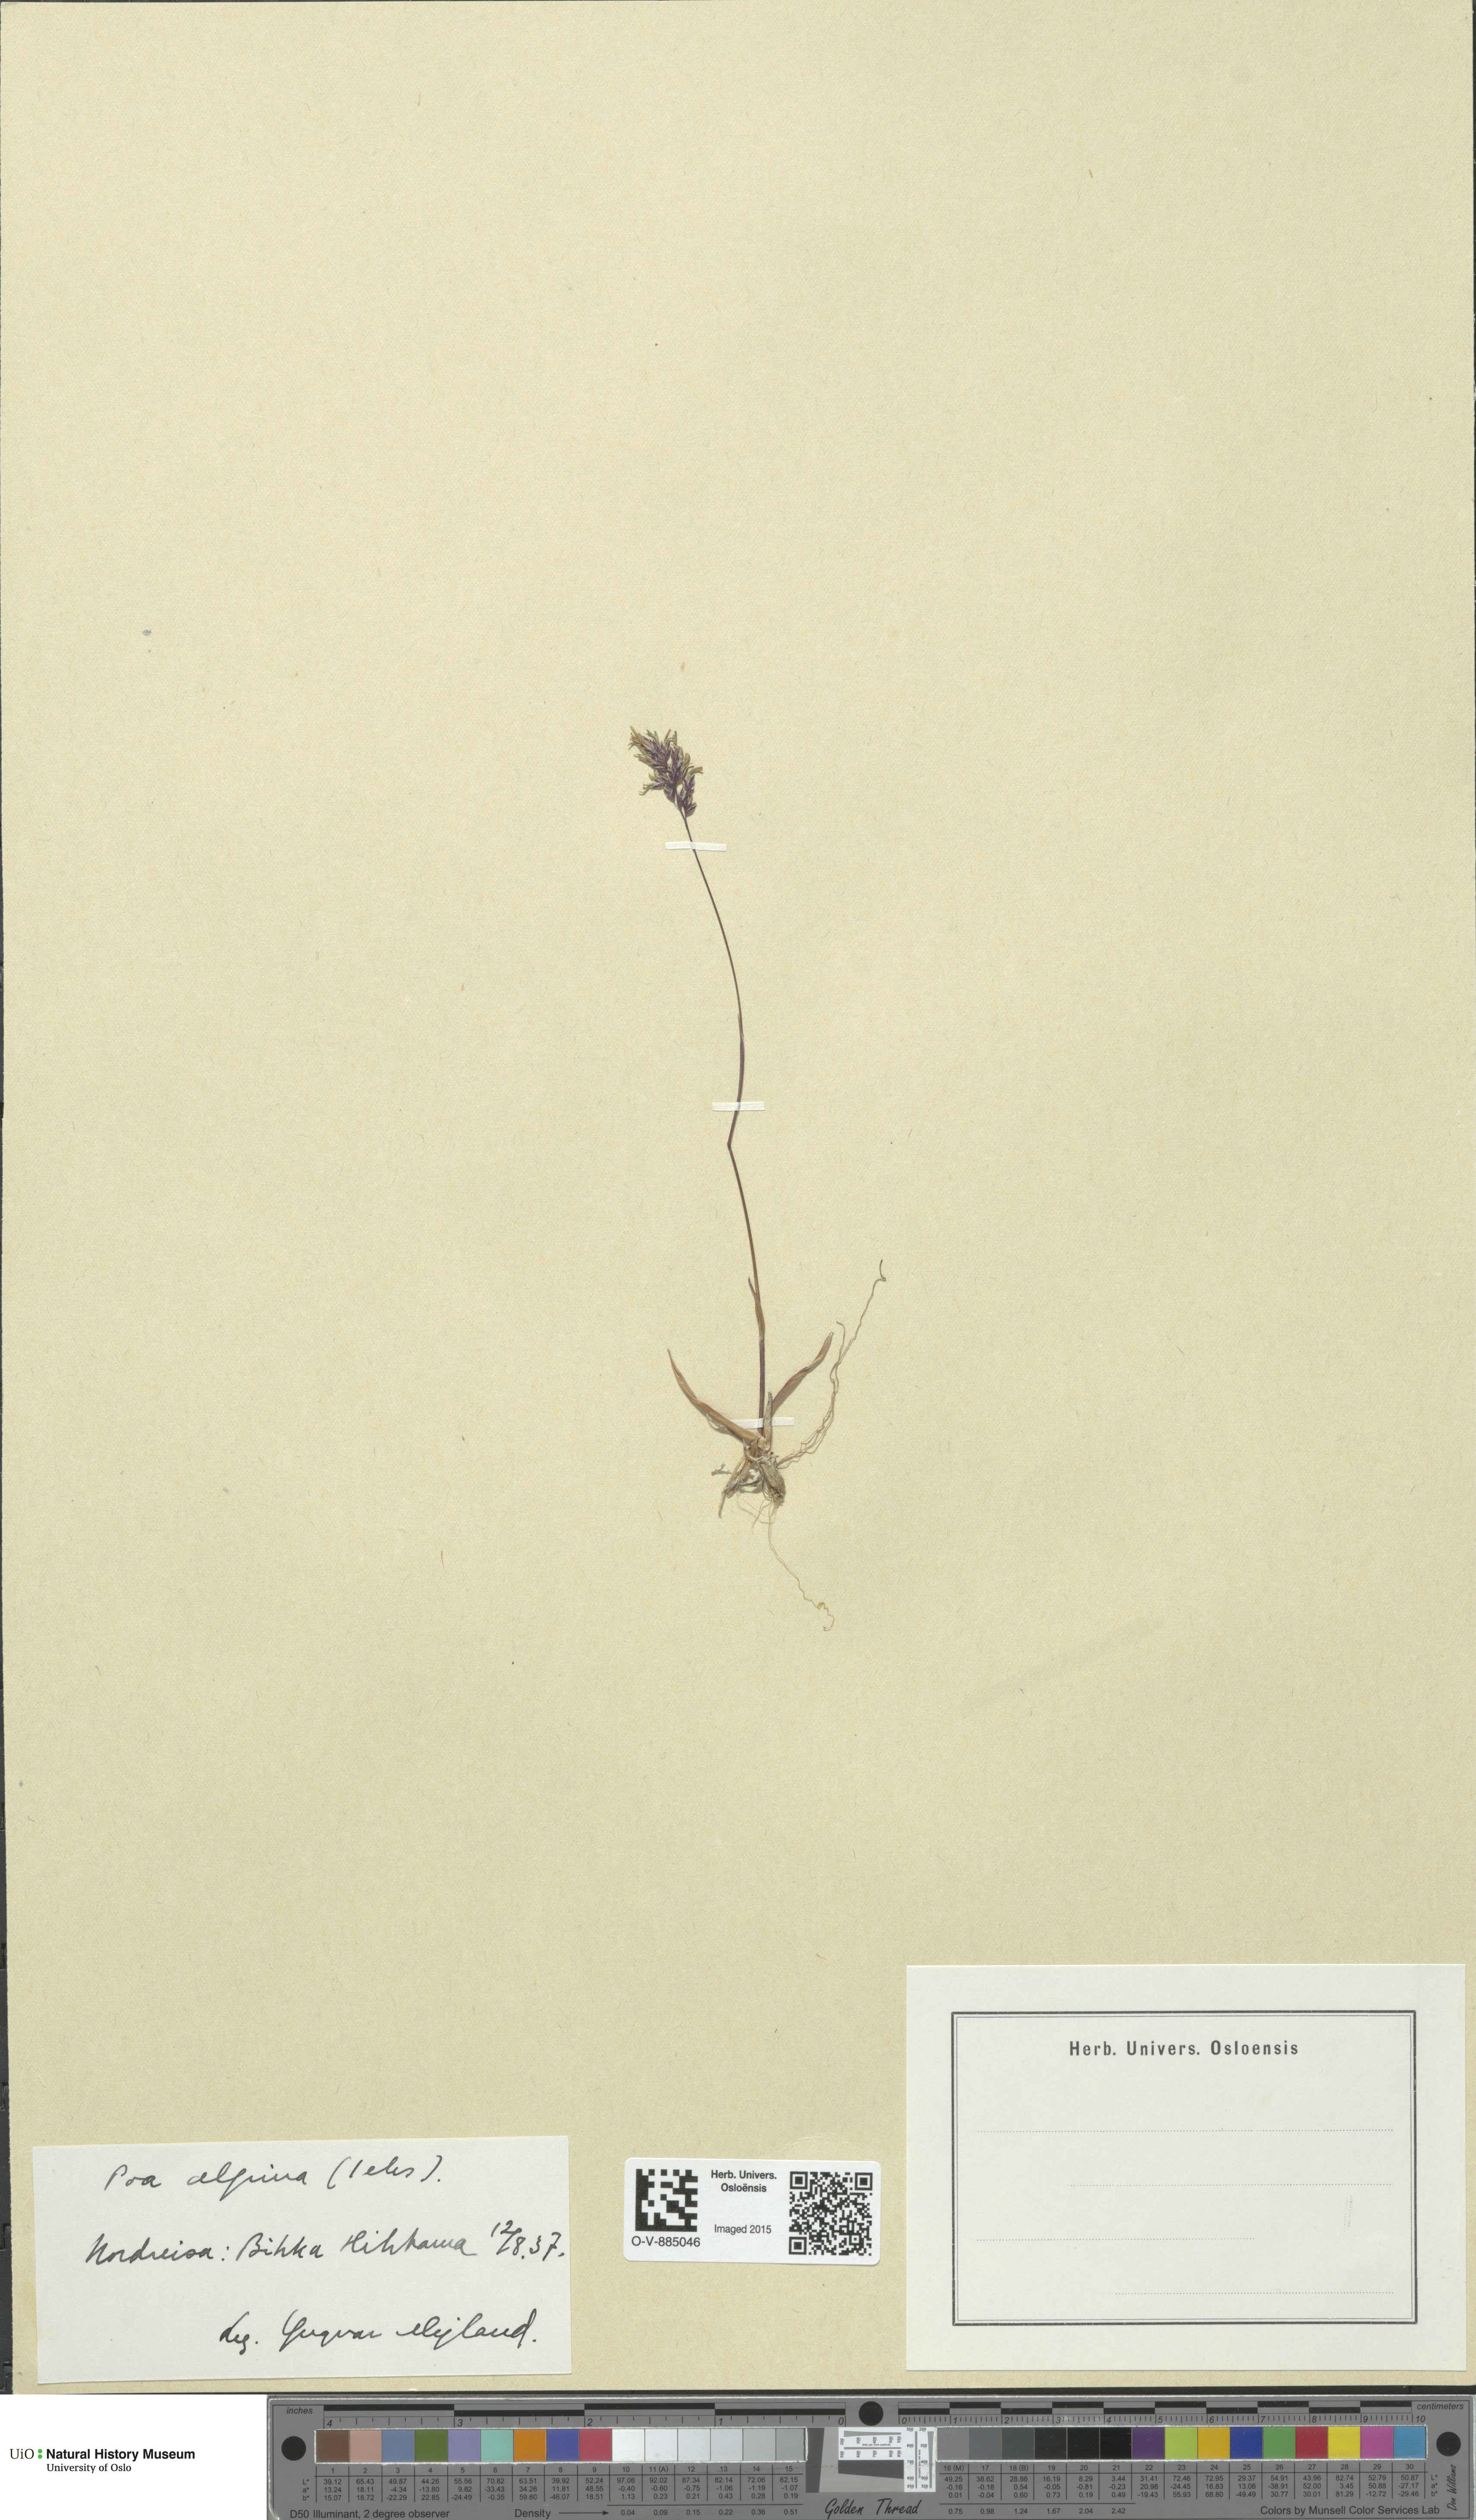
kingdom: Plantae
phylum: Tracheophyta
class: Liliopsida
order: Poales
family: Poaceae
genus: Poa
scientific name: Poa alpina
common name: Alpine bluegrass
